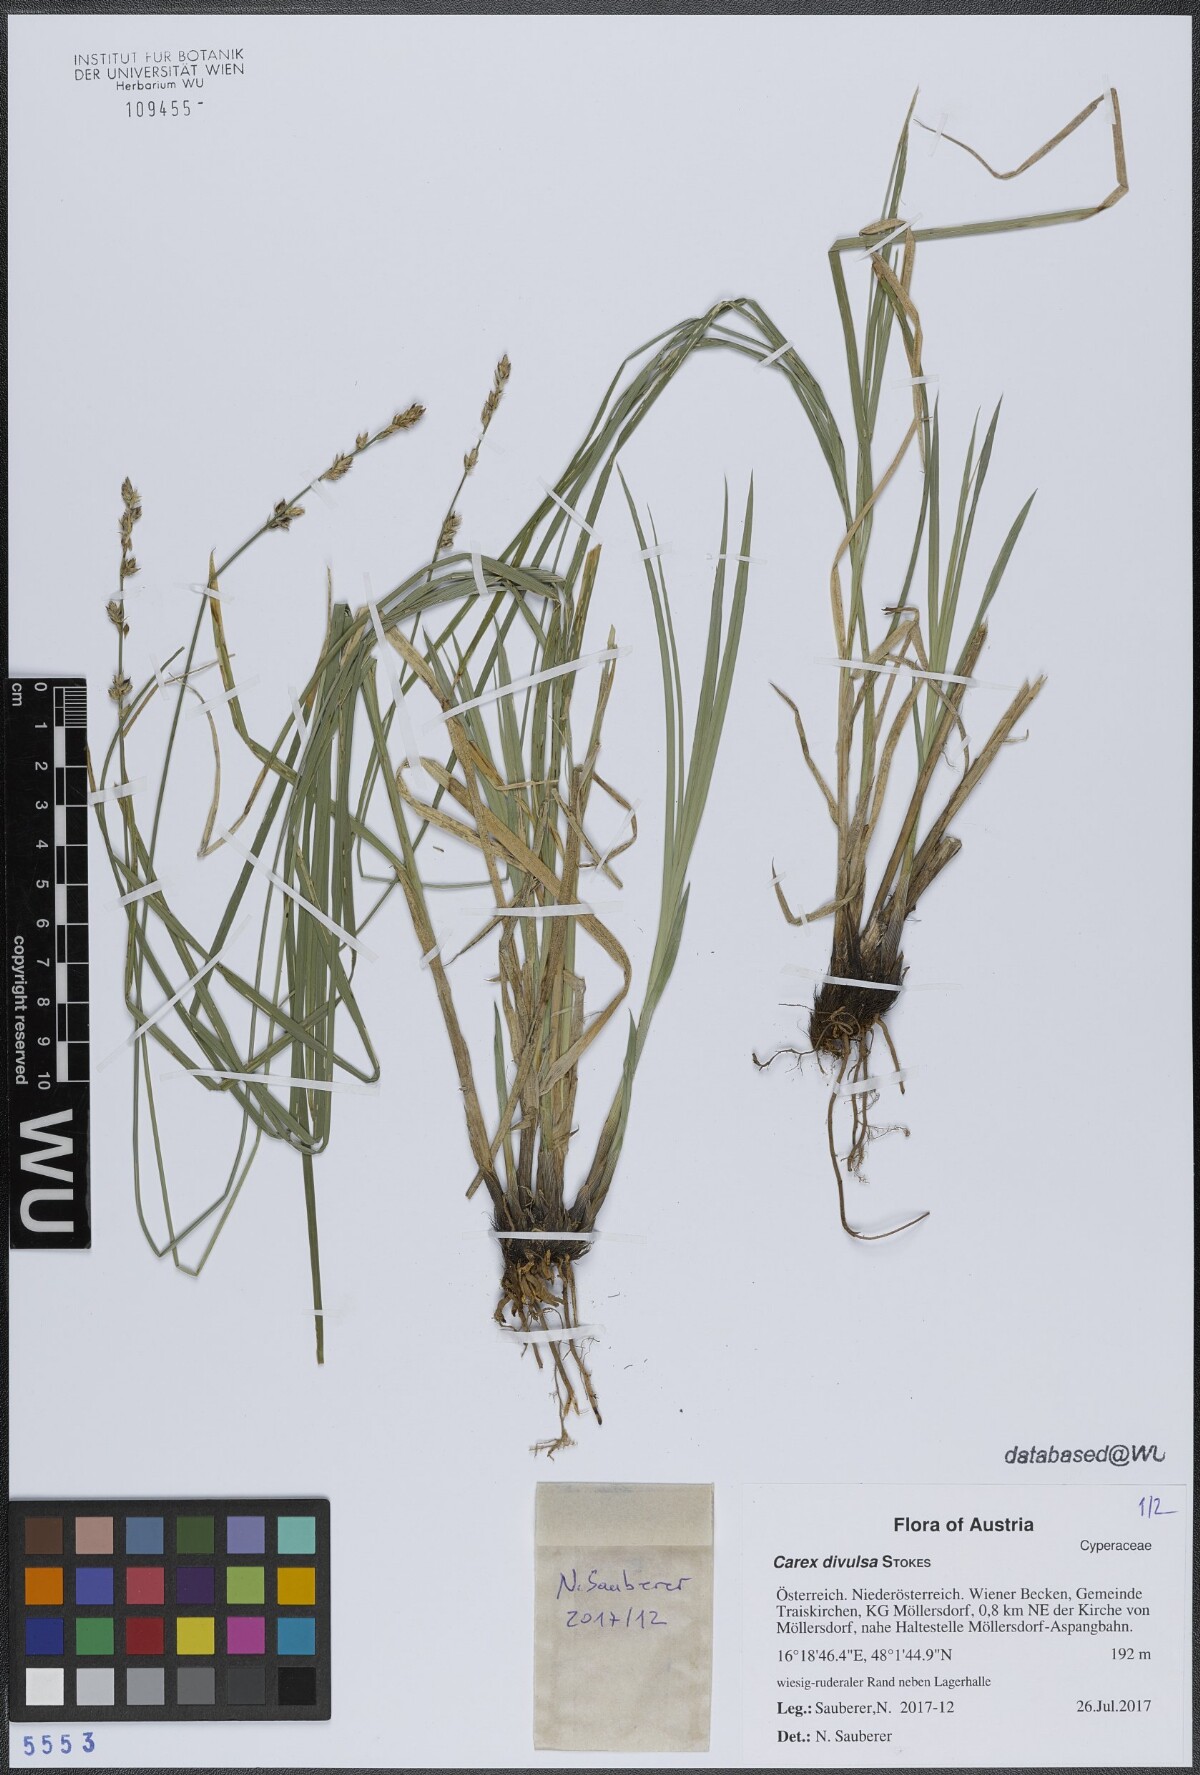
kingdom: Plantae
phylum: Tracheophyta
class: Liliopsida
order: Poales
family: Cyperaceae
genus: Carex
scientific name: Carex divulsa
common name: Grassland sedge
